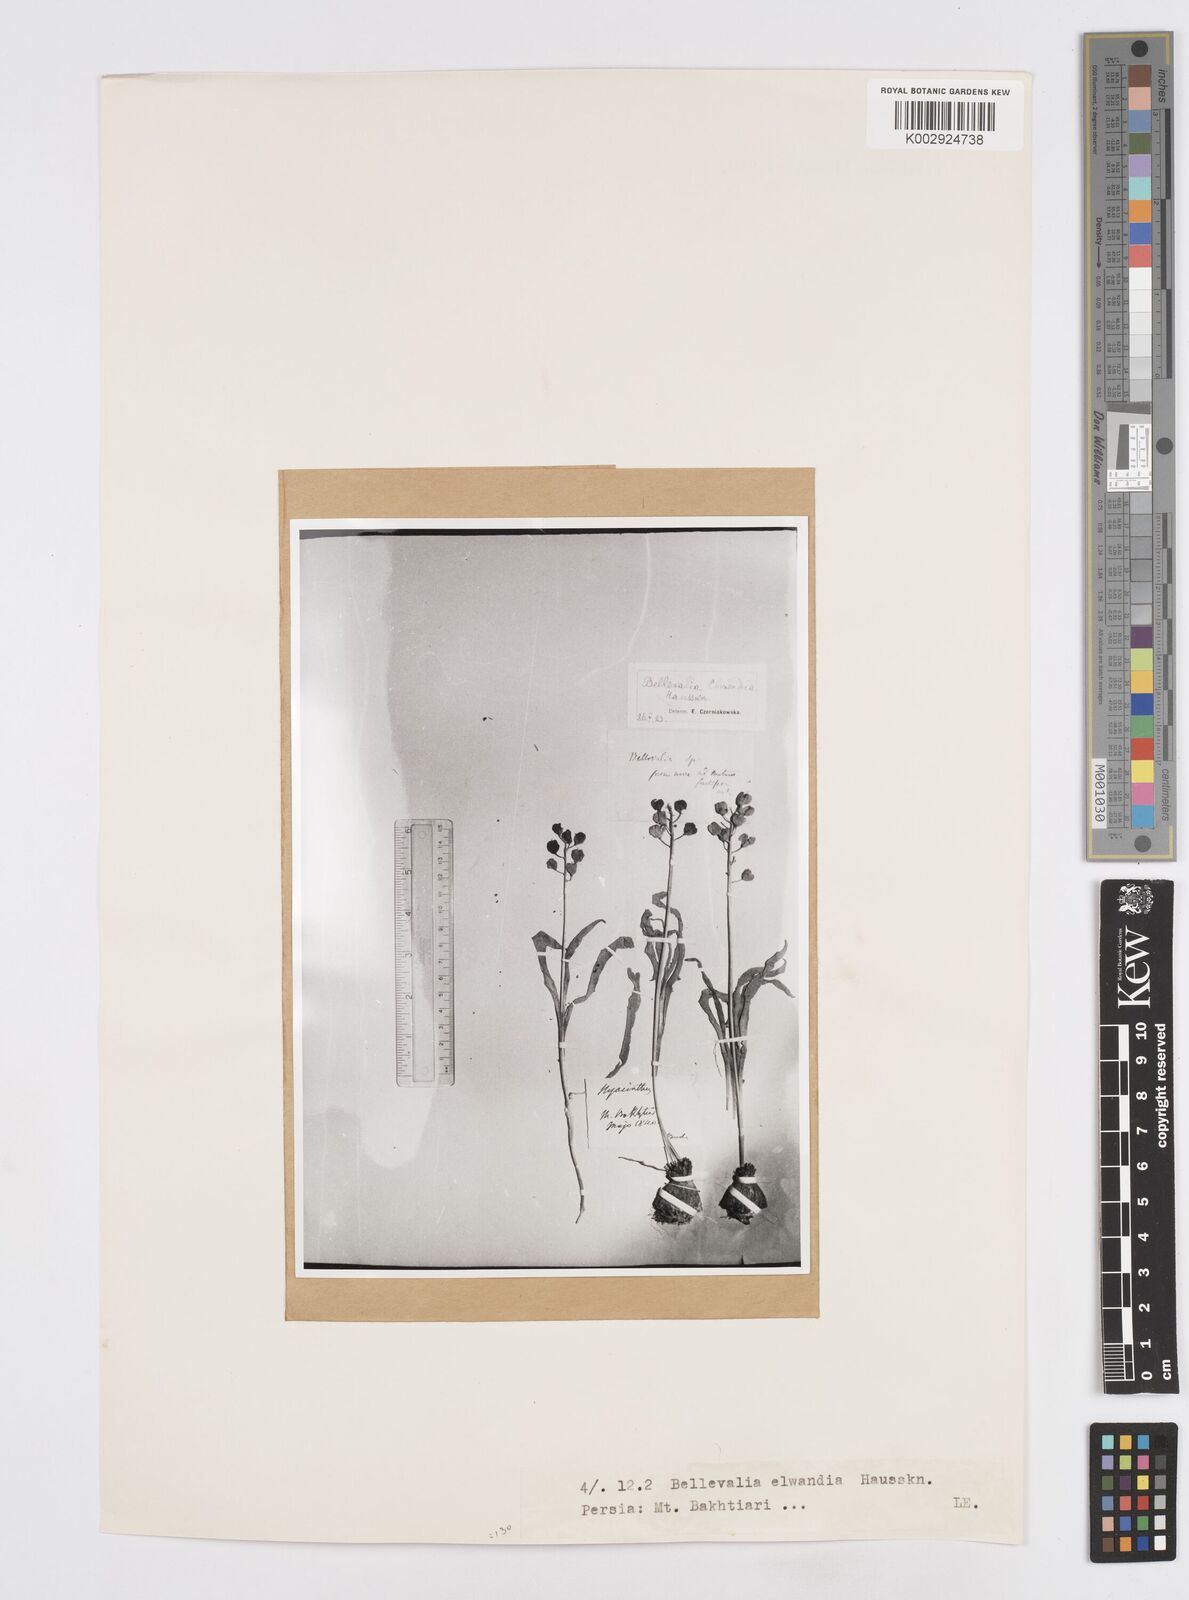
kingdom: Plantae
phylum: Tracheophyta
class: Liliopsida
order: Asparagales
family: Asparagaceae
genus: Bellevalia
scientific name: Bellevalia paradoxa
